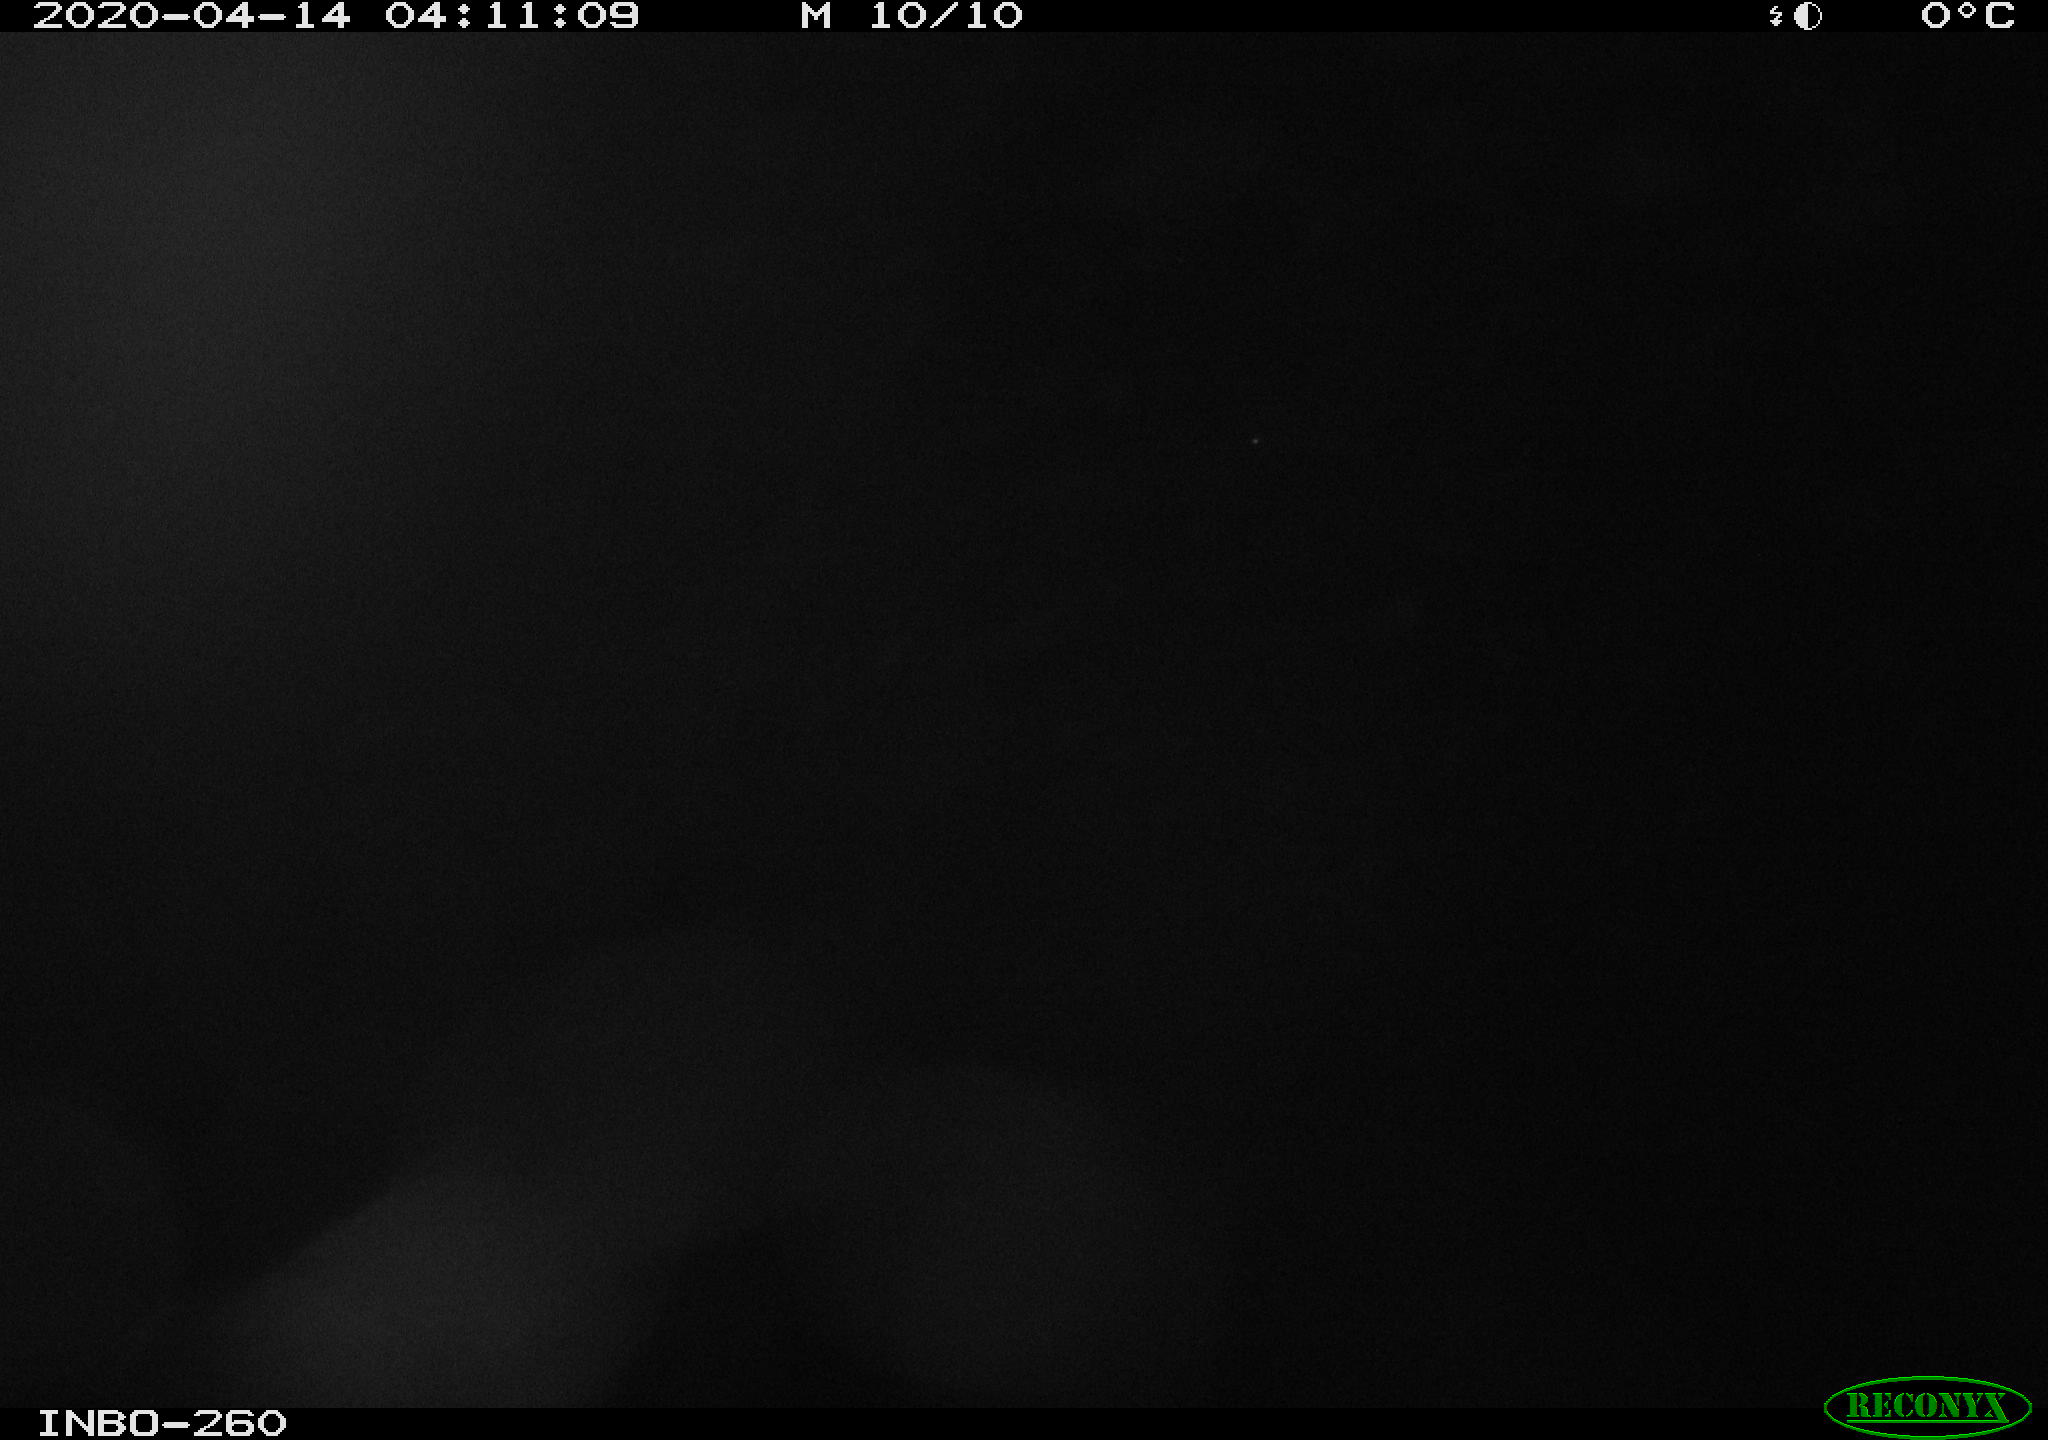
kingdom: Animalia
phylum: Chordata
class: Aves
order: Anseriformes
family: Anatidae
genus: Anas
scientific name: Anas platyrhynchos
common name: Mallard
